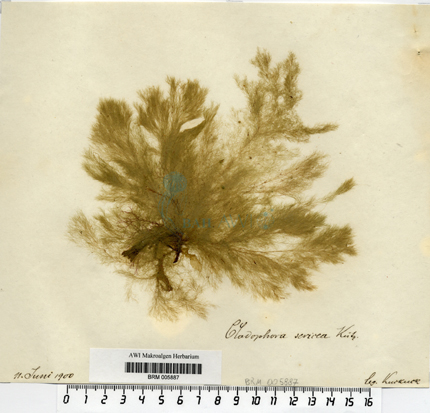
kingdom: Plantae
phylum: Chlorophyta
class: Ulvophyceae
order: Cladophorales
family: Cladophoraceae
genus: Cladophora
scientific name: Cladophora sericea
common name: Graceful green hair
